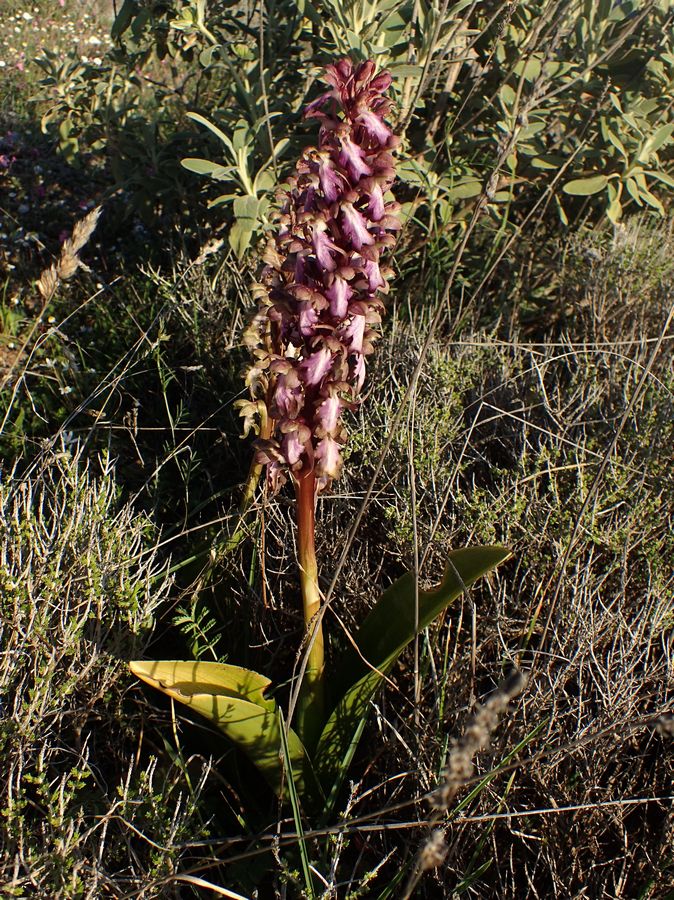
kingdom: Plantae
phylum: Tracheophyta
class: Liliopsida
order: Asparagales
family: Orchidaceae
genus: Himantoglossum
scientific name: Himantoglossum robertianum
